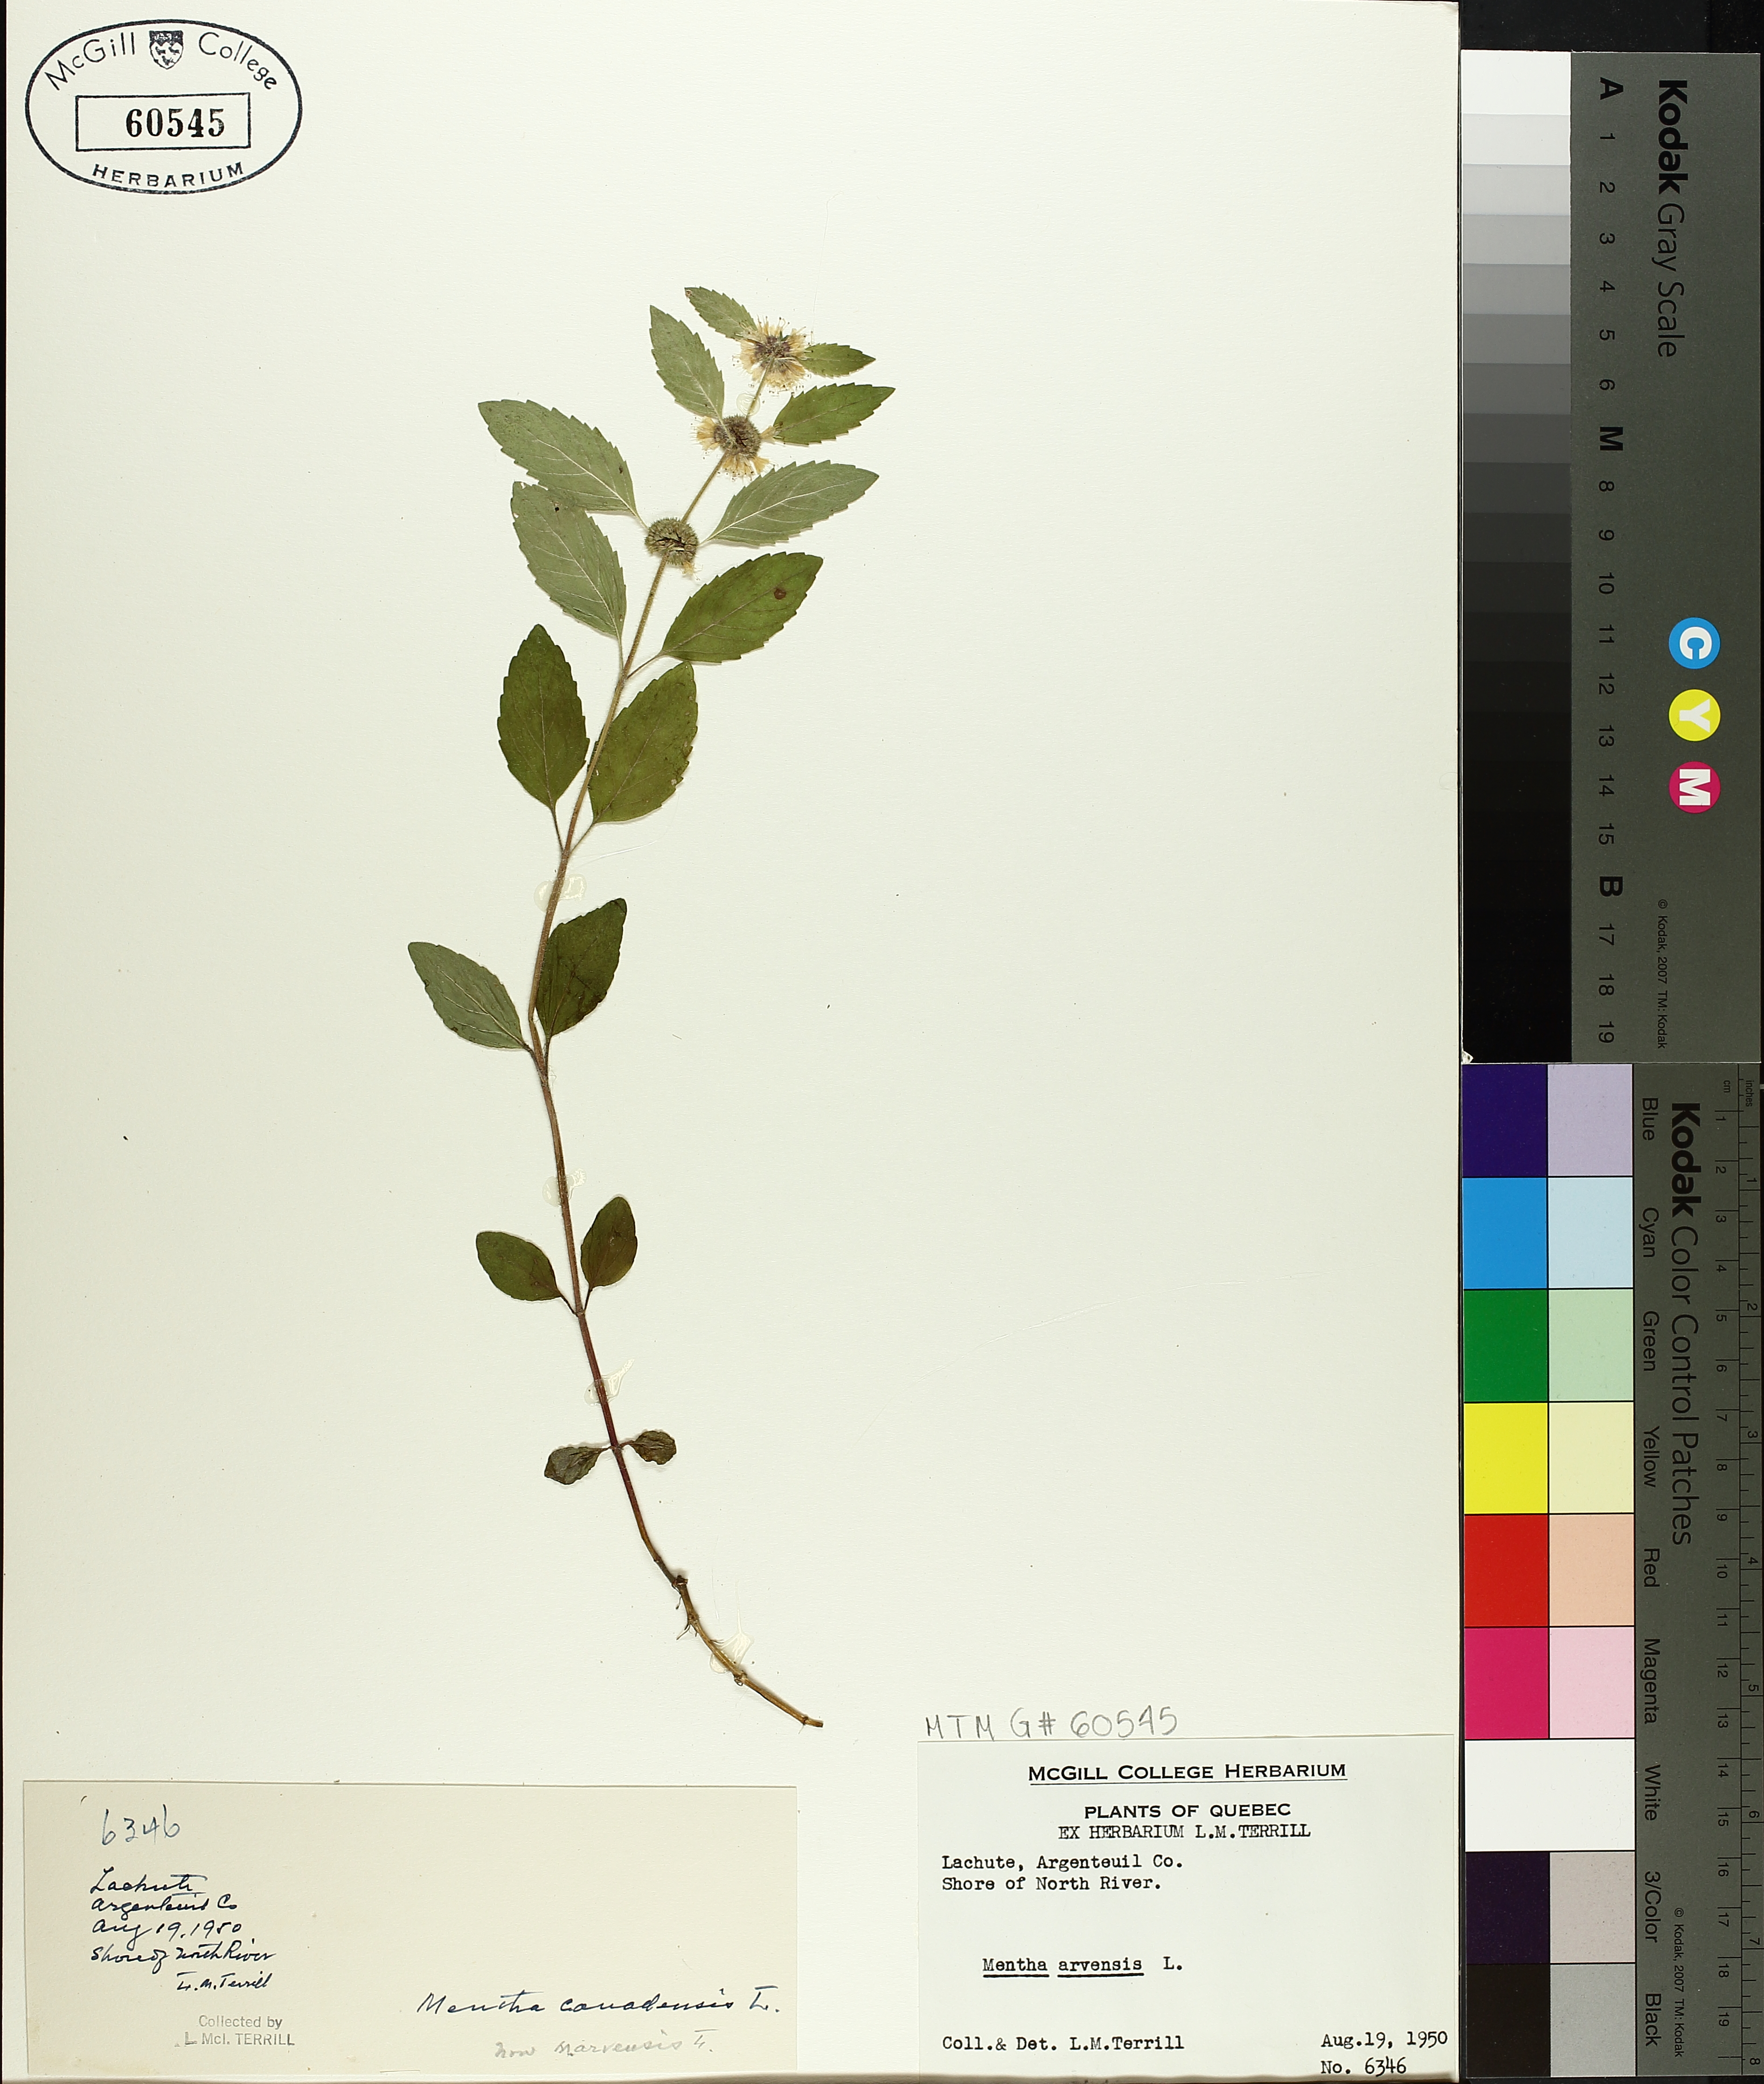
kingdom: Plantae
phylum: Tracheophyta
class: Magnoliopsida
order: Lamiales
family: Lamiaceae
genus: Mentha
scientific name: Mentha arvensis
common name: Corn mint
